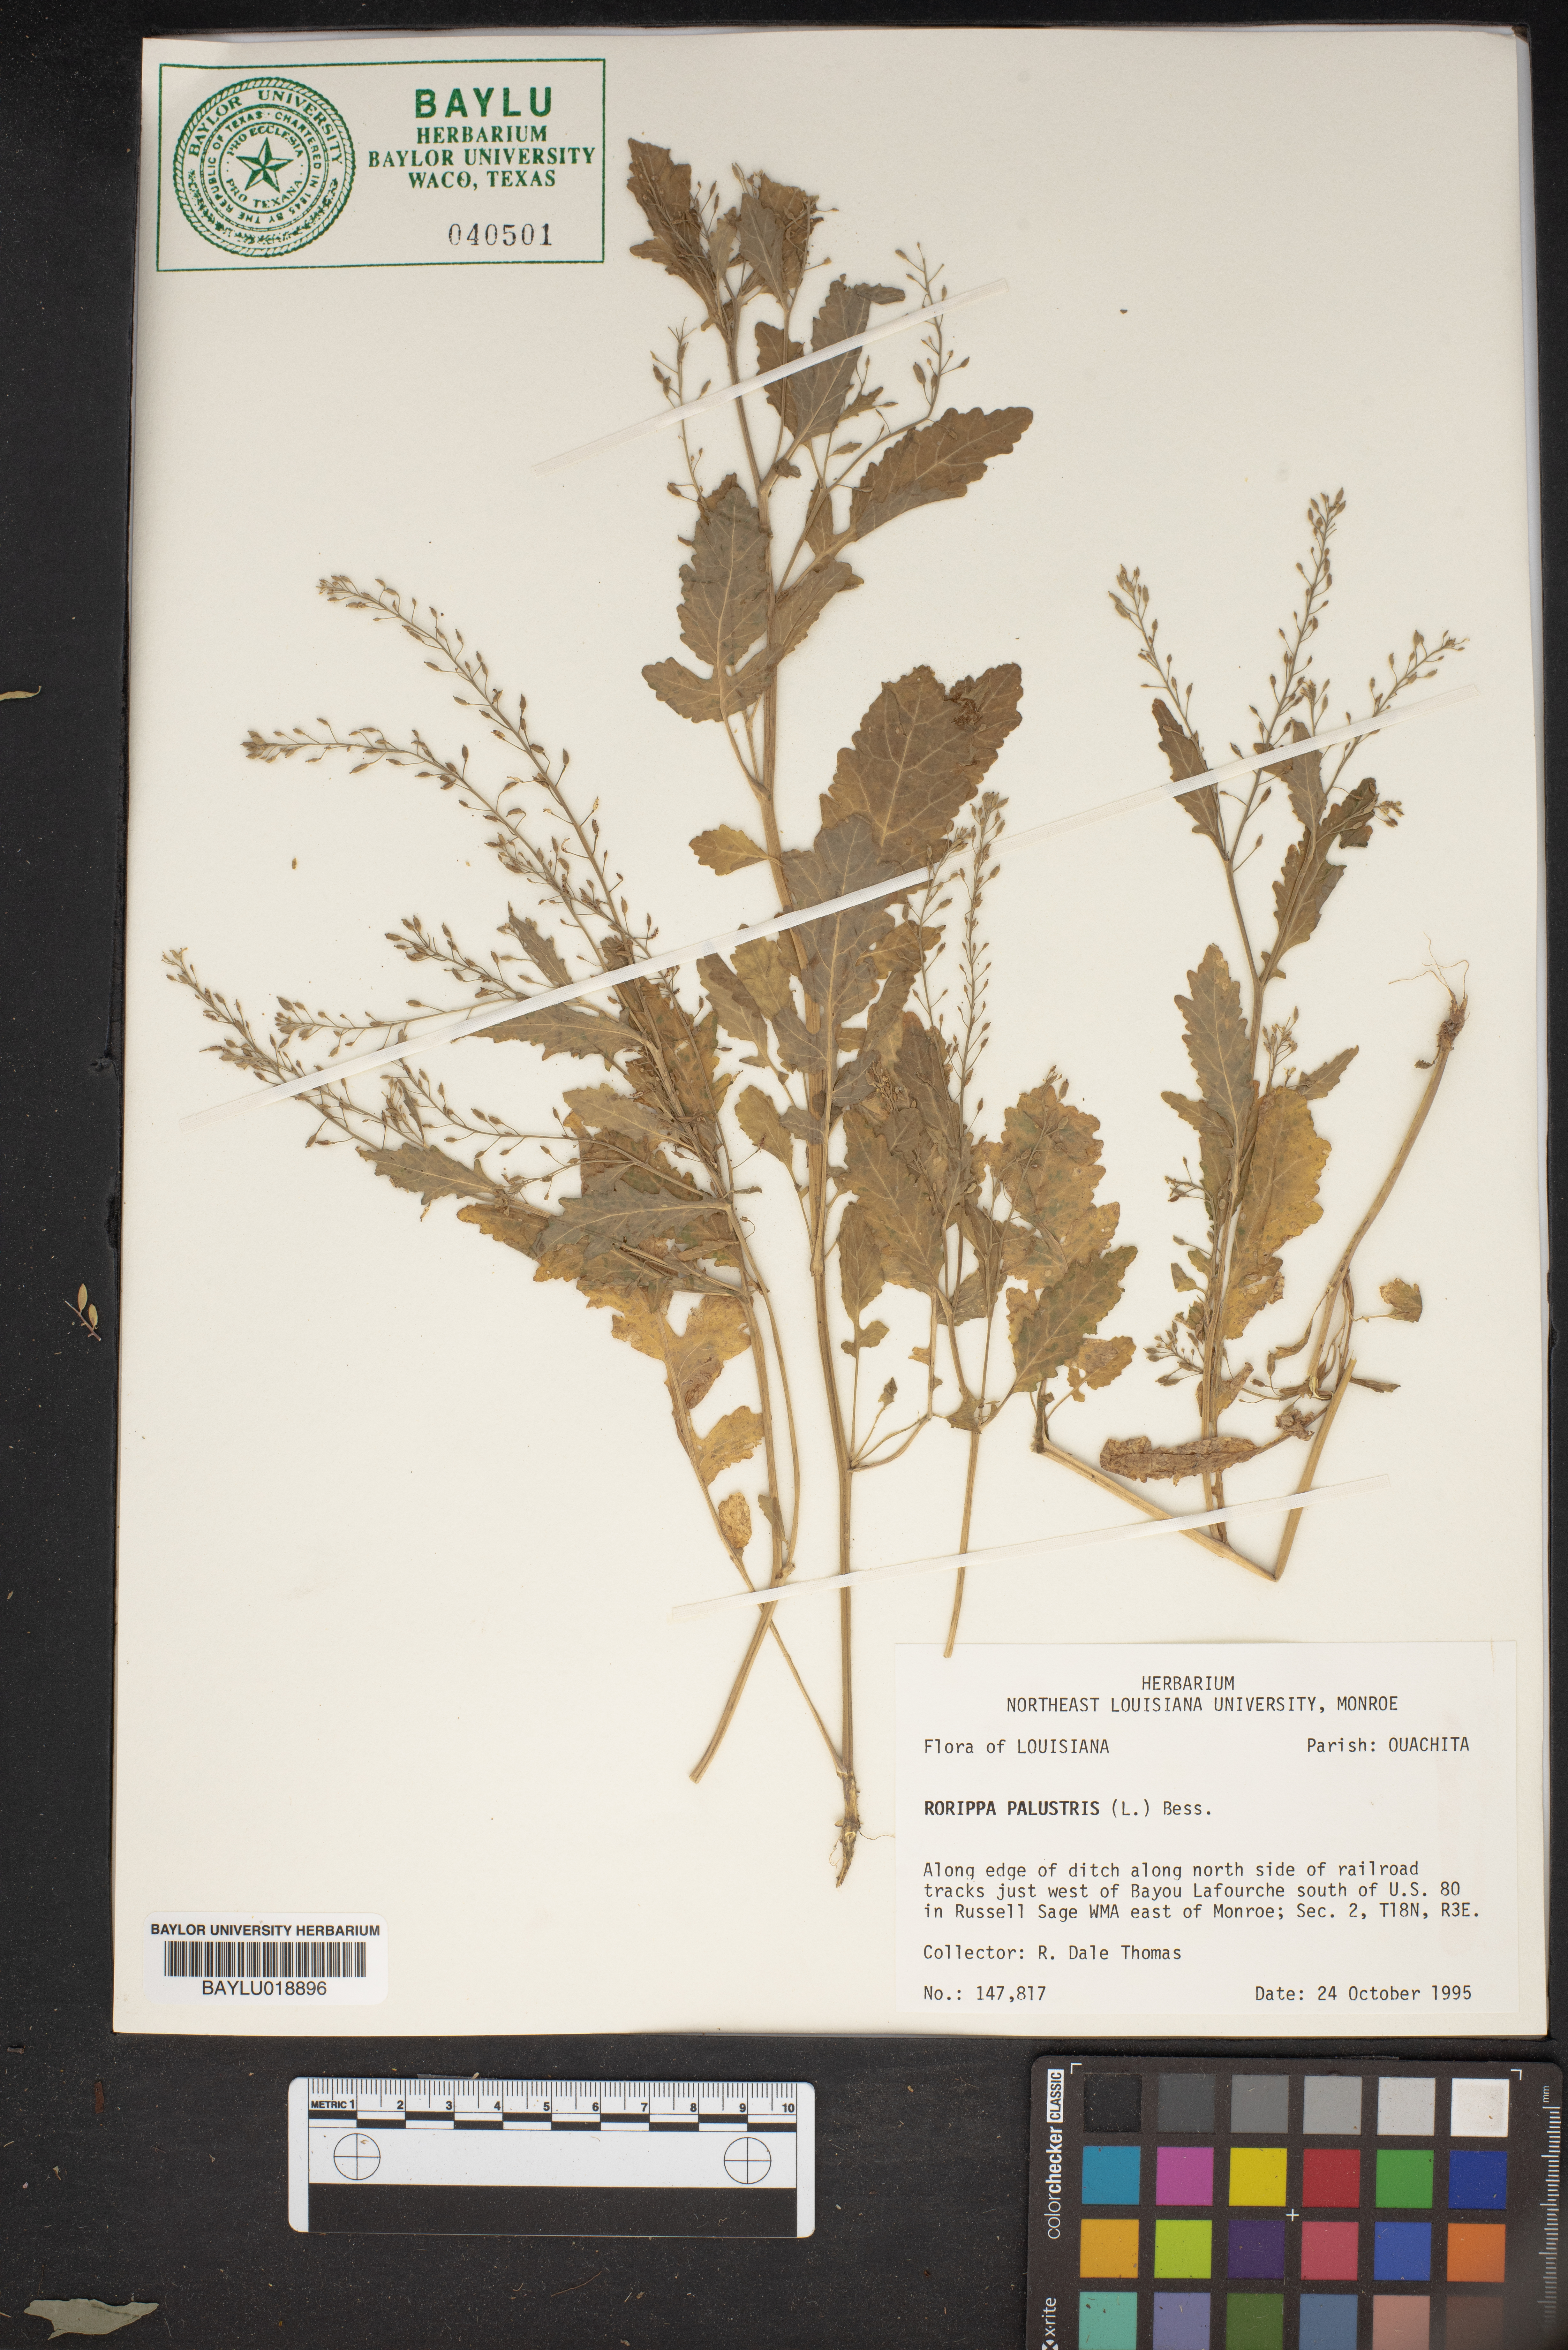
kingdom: Plantae
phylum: Tracheophyta
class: Magnoliopsida
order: Brassicales
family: Brassicaceae
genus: Rorippa
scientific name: Rorippa palustris
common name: Marsh yellow-cress
